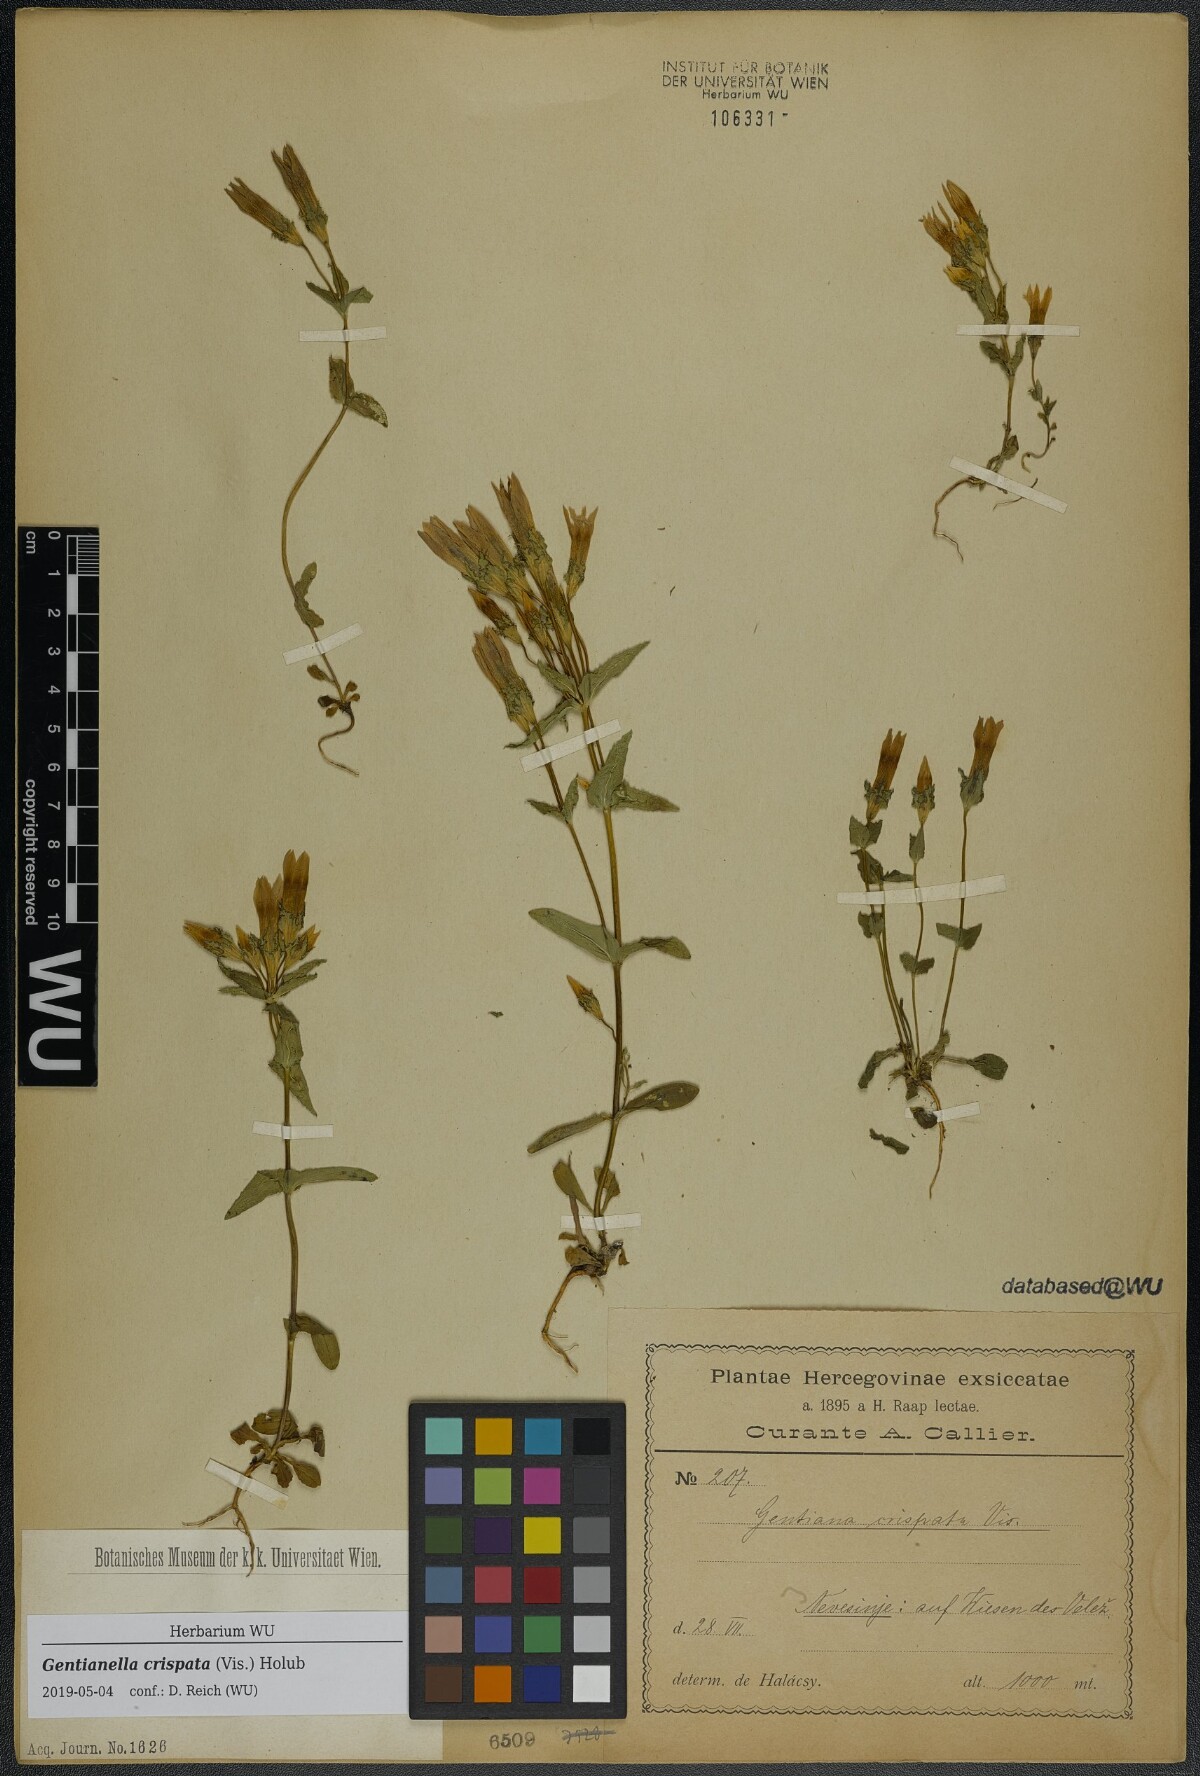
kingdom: Plantae
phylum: Tracheophyta
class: Magnoliopsida
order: Gentianales
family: Gentianaceae
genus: Gentianella
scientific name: Gentianella crispata
